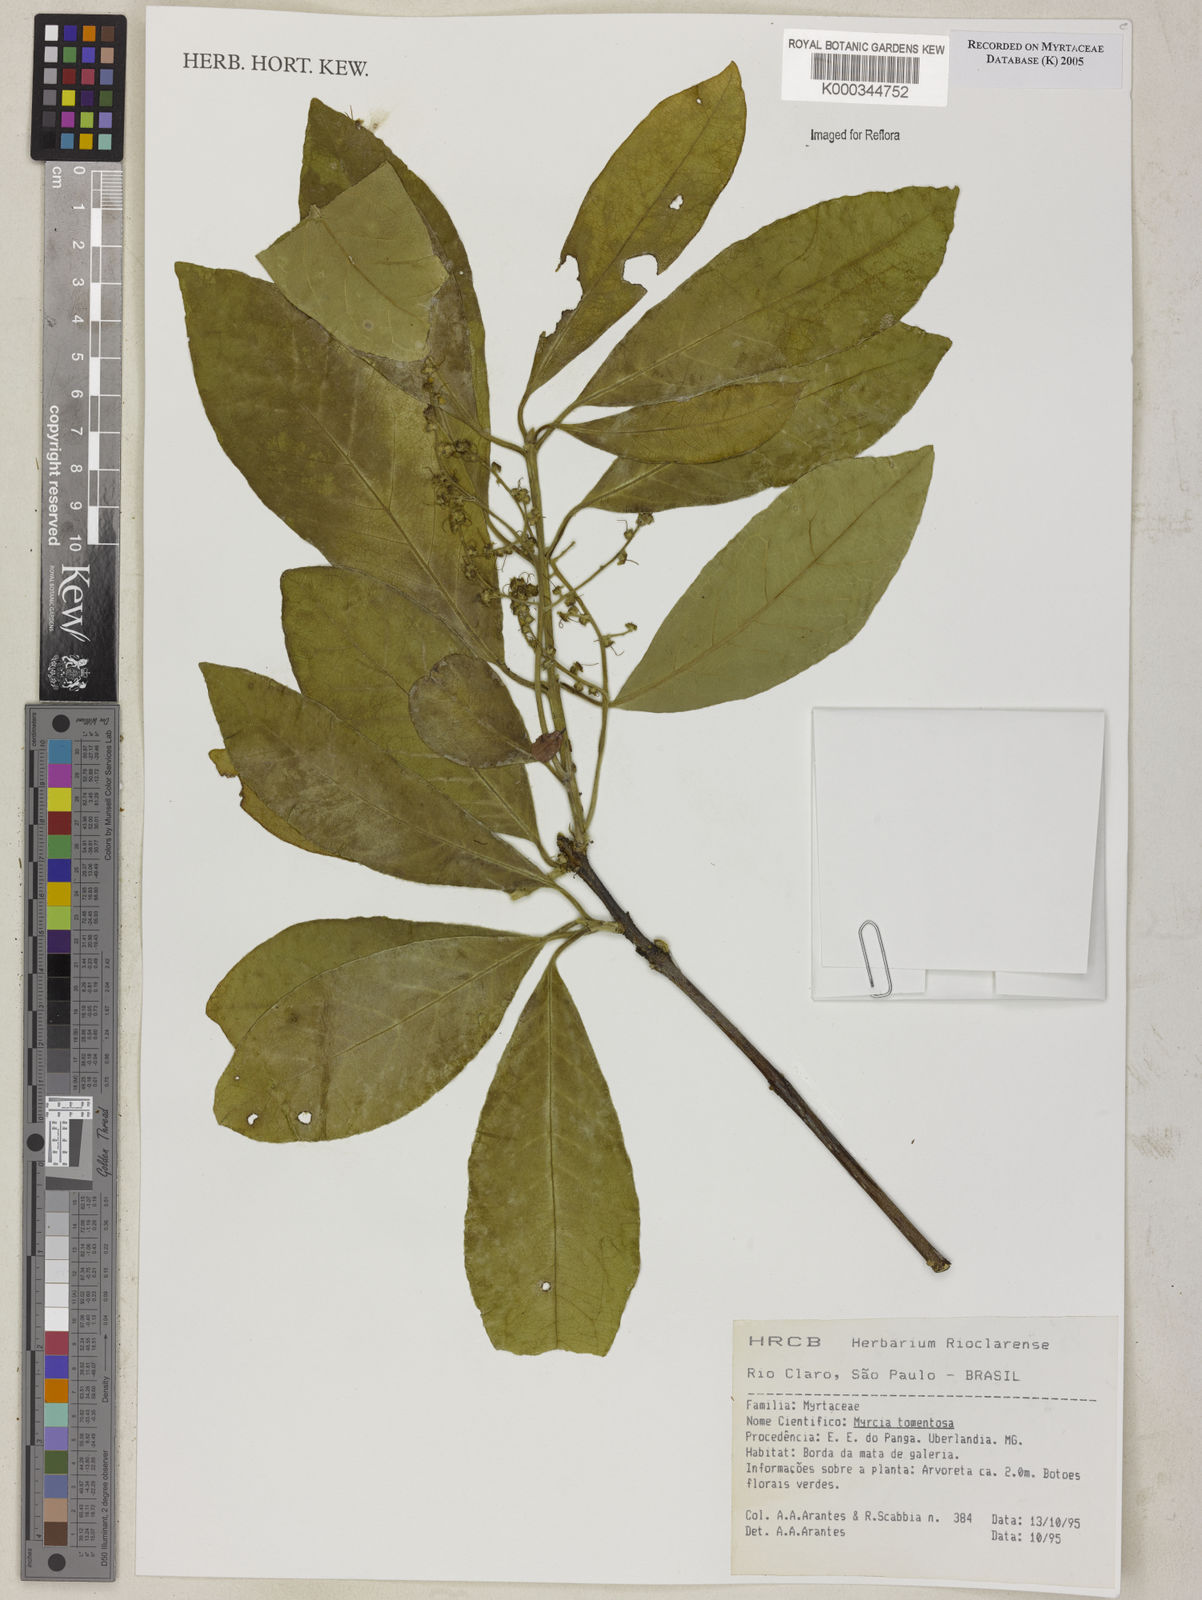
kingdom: Plantae
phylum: Tracheophyta
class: Magnoliopsida
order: Myrtales
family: Myrtaceae
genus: Myrcia
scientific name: Myrcia tomentosa
